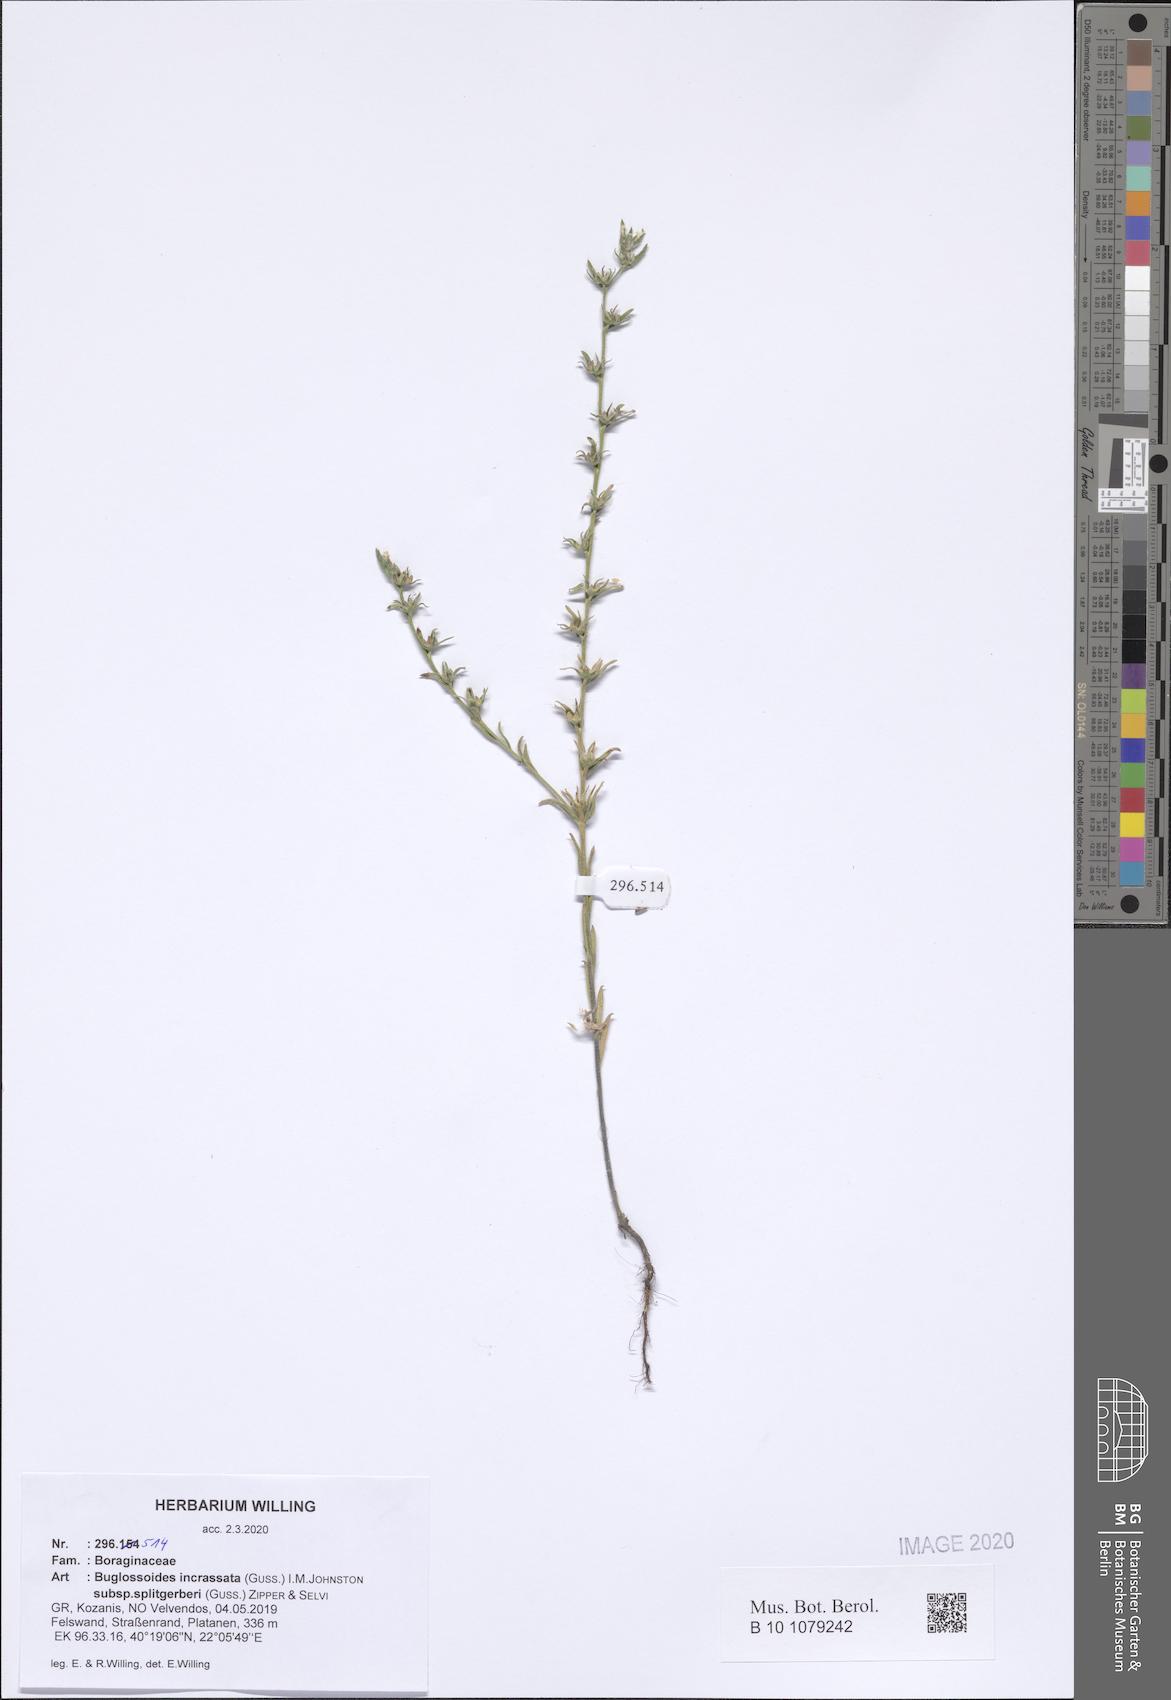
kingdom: Plantae
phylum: Tracheophyta
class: Magnoliopsida
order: Boraginales
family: Boraginaceae
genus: Buglossoides
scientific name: Buglossoides incrassata
